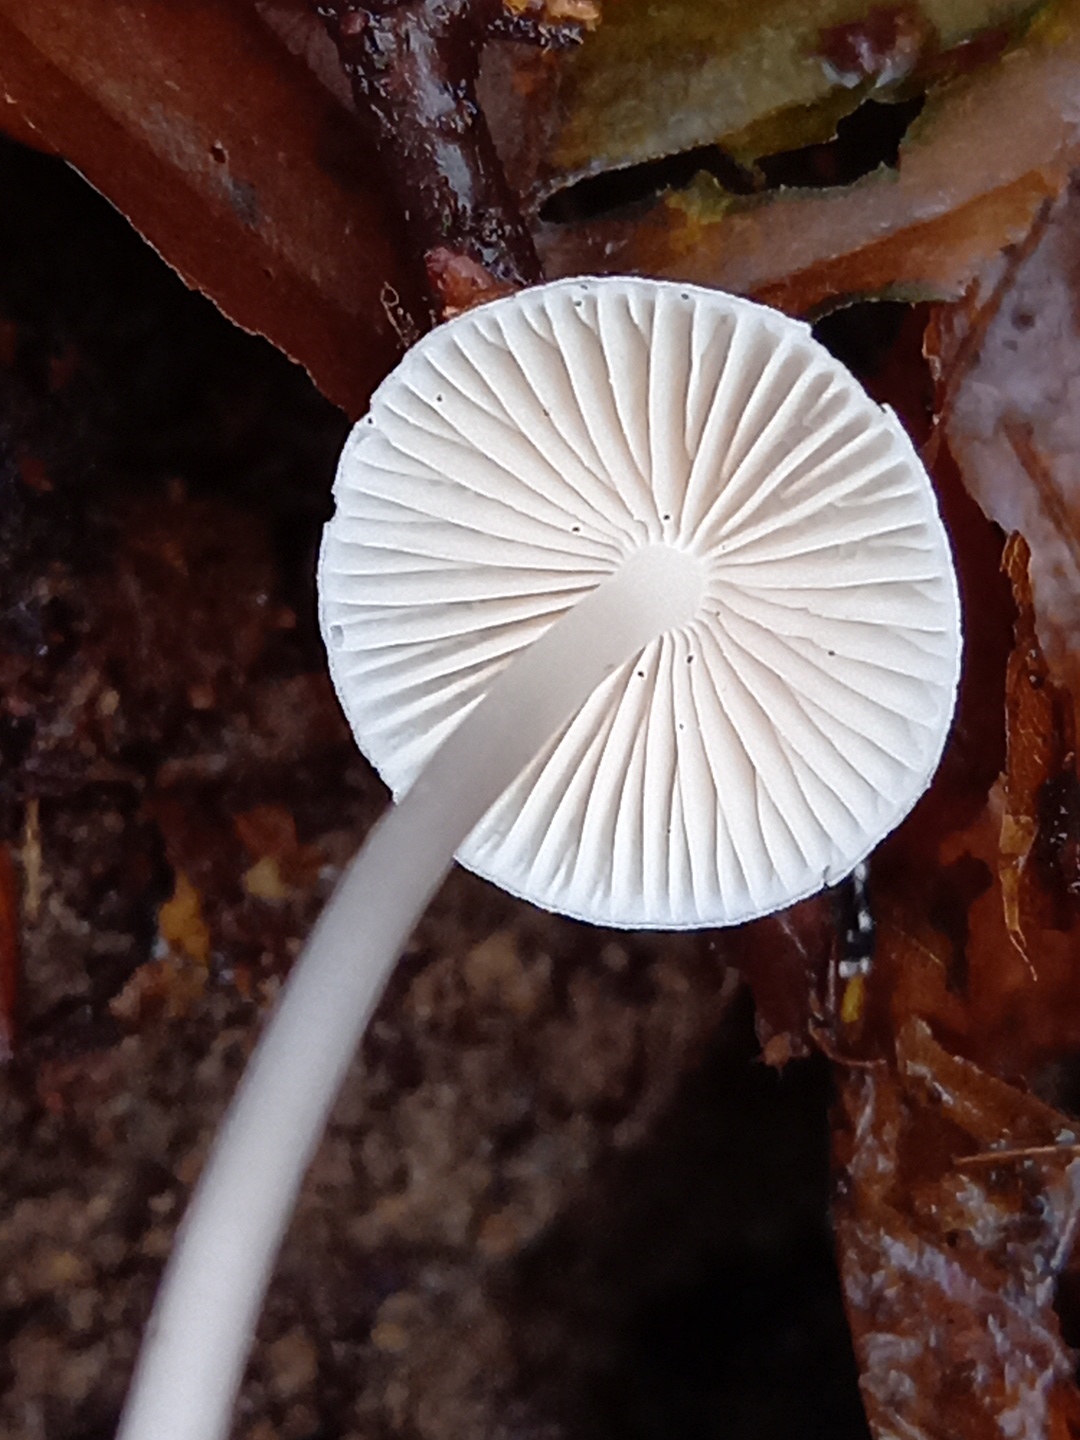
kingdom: Fungi
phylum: Basidiomycota
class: Agaricomycetes
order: Agaricales
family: Mycenaceae
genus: Mycena
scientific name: Mycena vitilis
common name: blankstokket huesvamp
